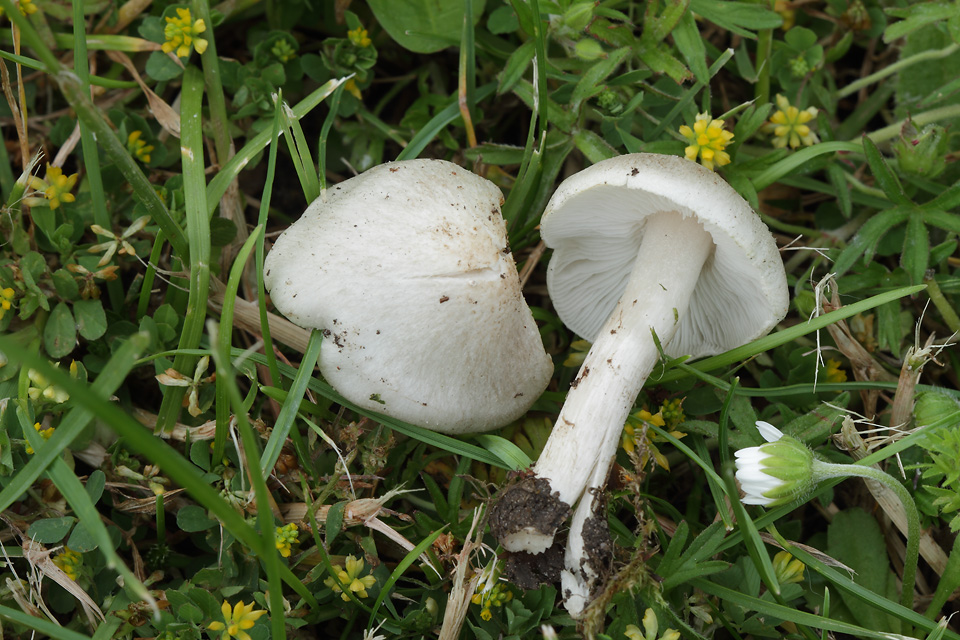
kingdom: Fungi
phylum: Basidiomycota
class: Agaricomycetes
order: Agaricales
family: Tricholomataceae
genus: Tricholoma
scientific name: Tricholoma scalpturatum
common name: gulplettet ridderhat
